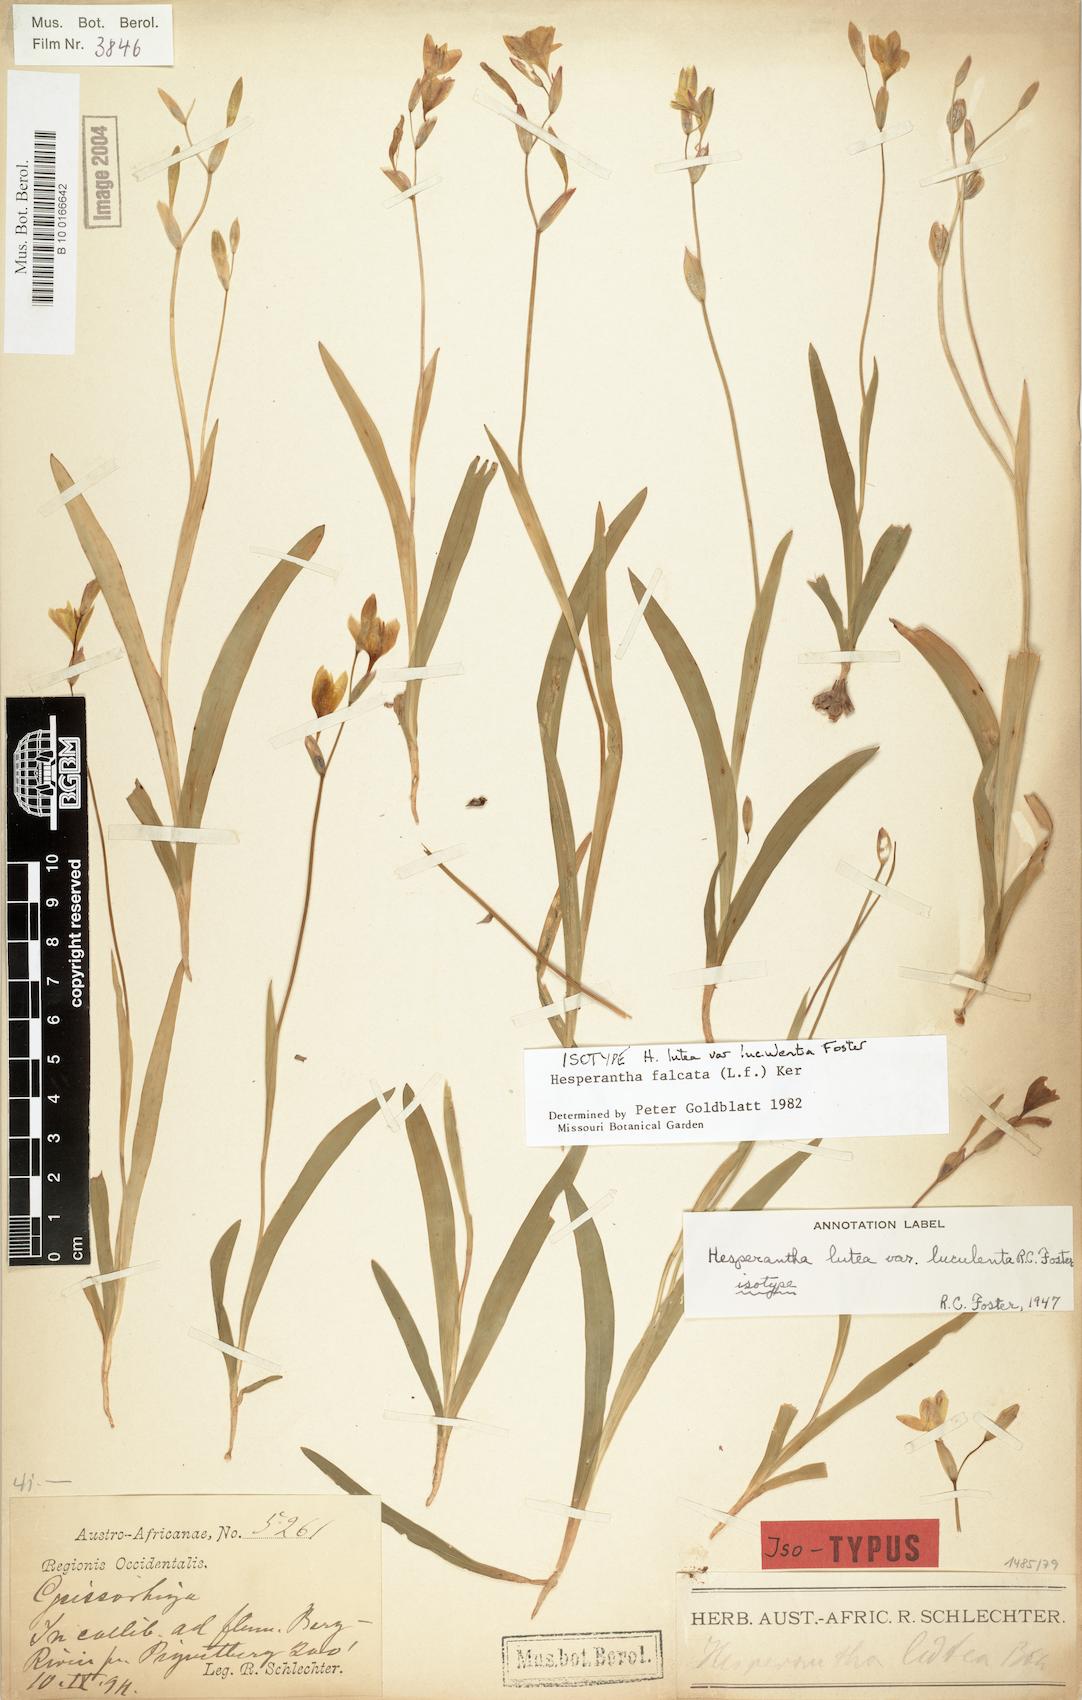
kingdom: Plantae
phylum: Tracheophyta
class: Liliopsida
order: Asparagales
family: Iridaceae
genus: Hesperantha
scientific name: Hesperantha falcata
